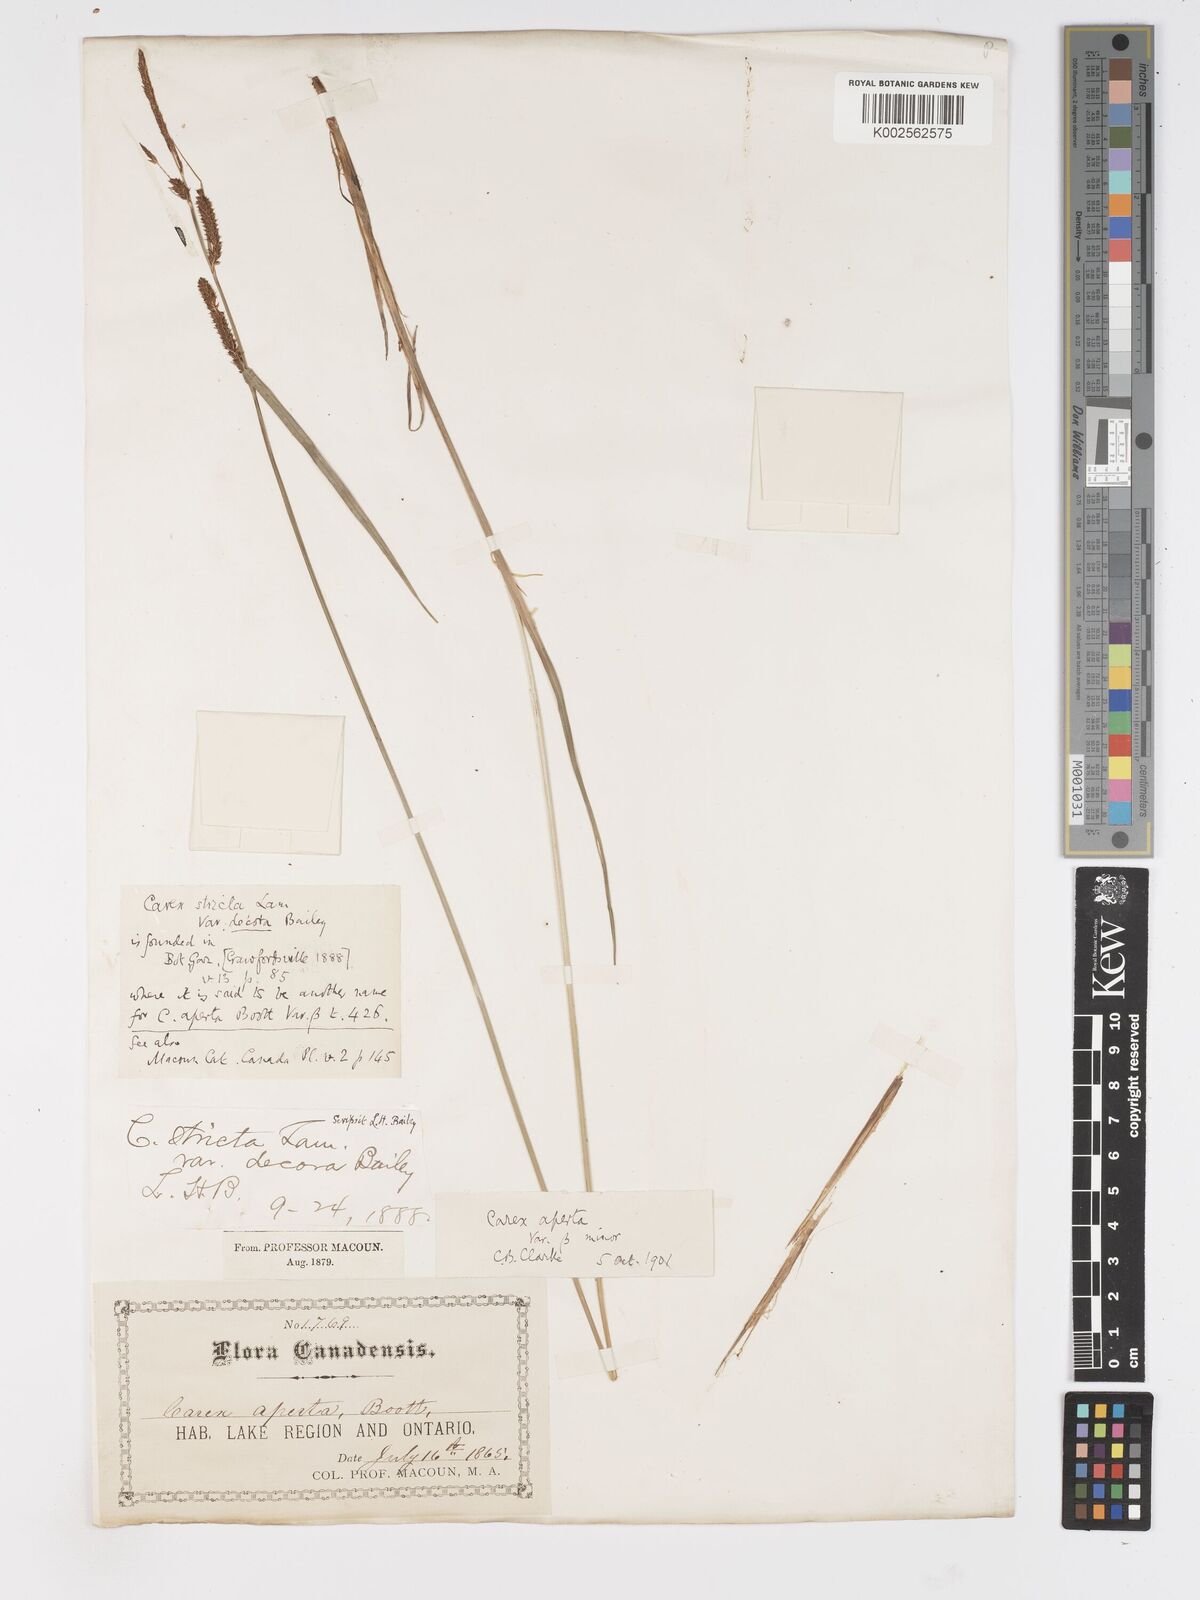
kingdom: Plantae
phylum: Tracheophyta
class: Liliopsida
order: Poales
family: Cyperaceae
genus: Carex
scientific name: Carex haydenii
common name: Hayden's sedge
